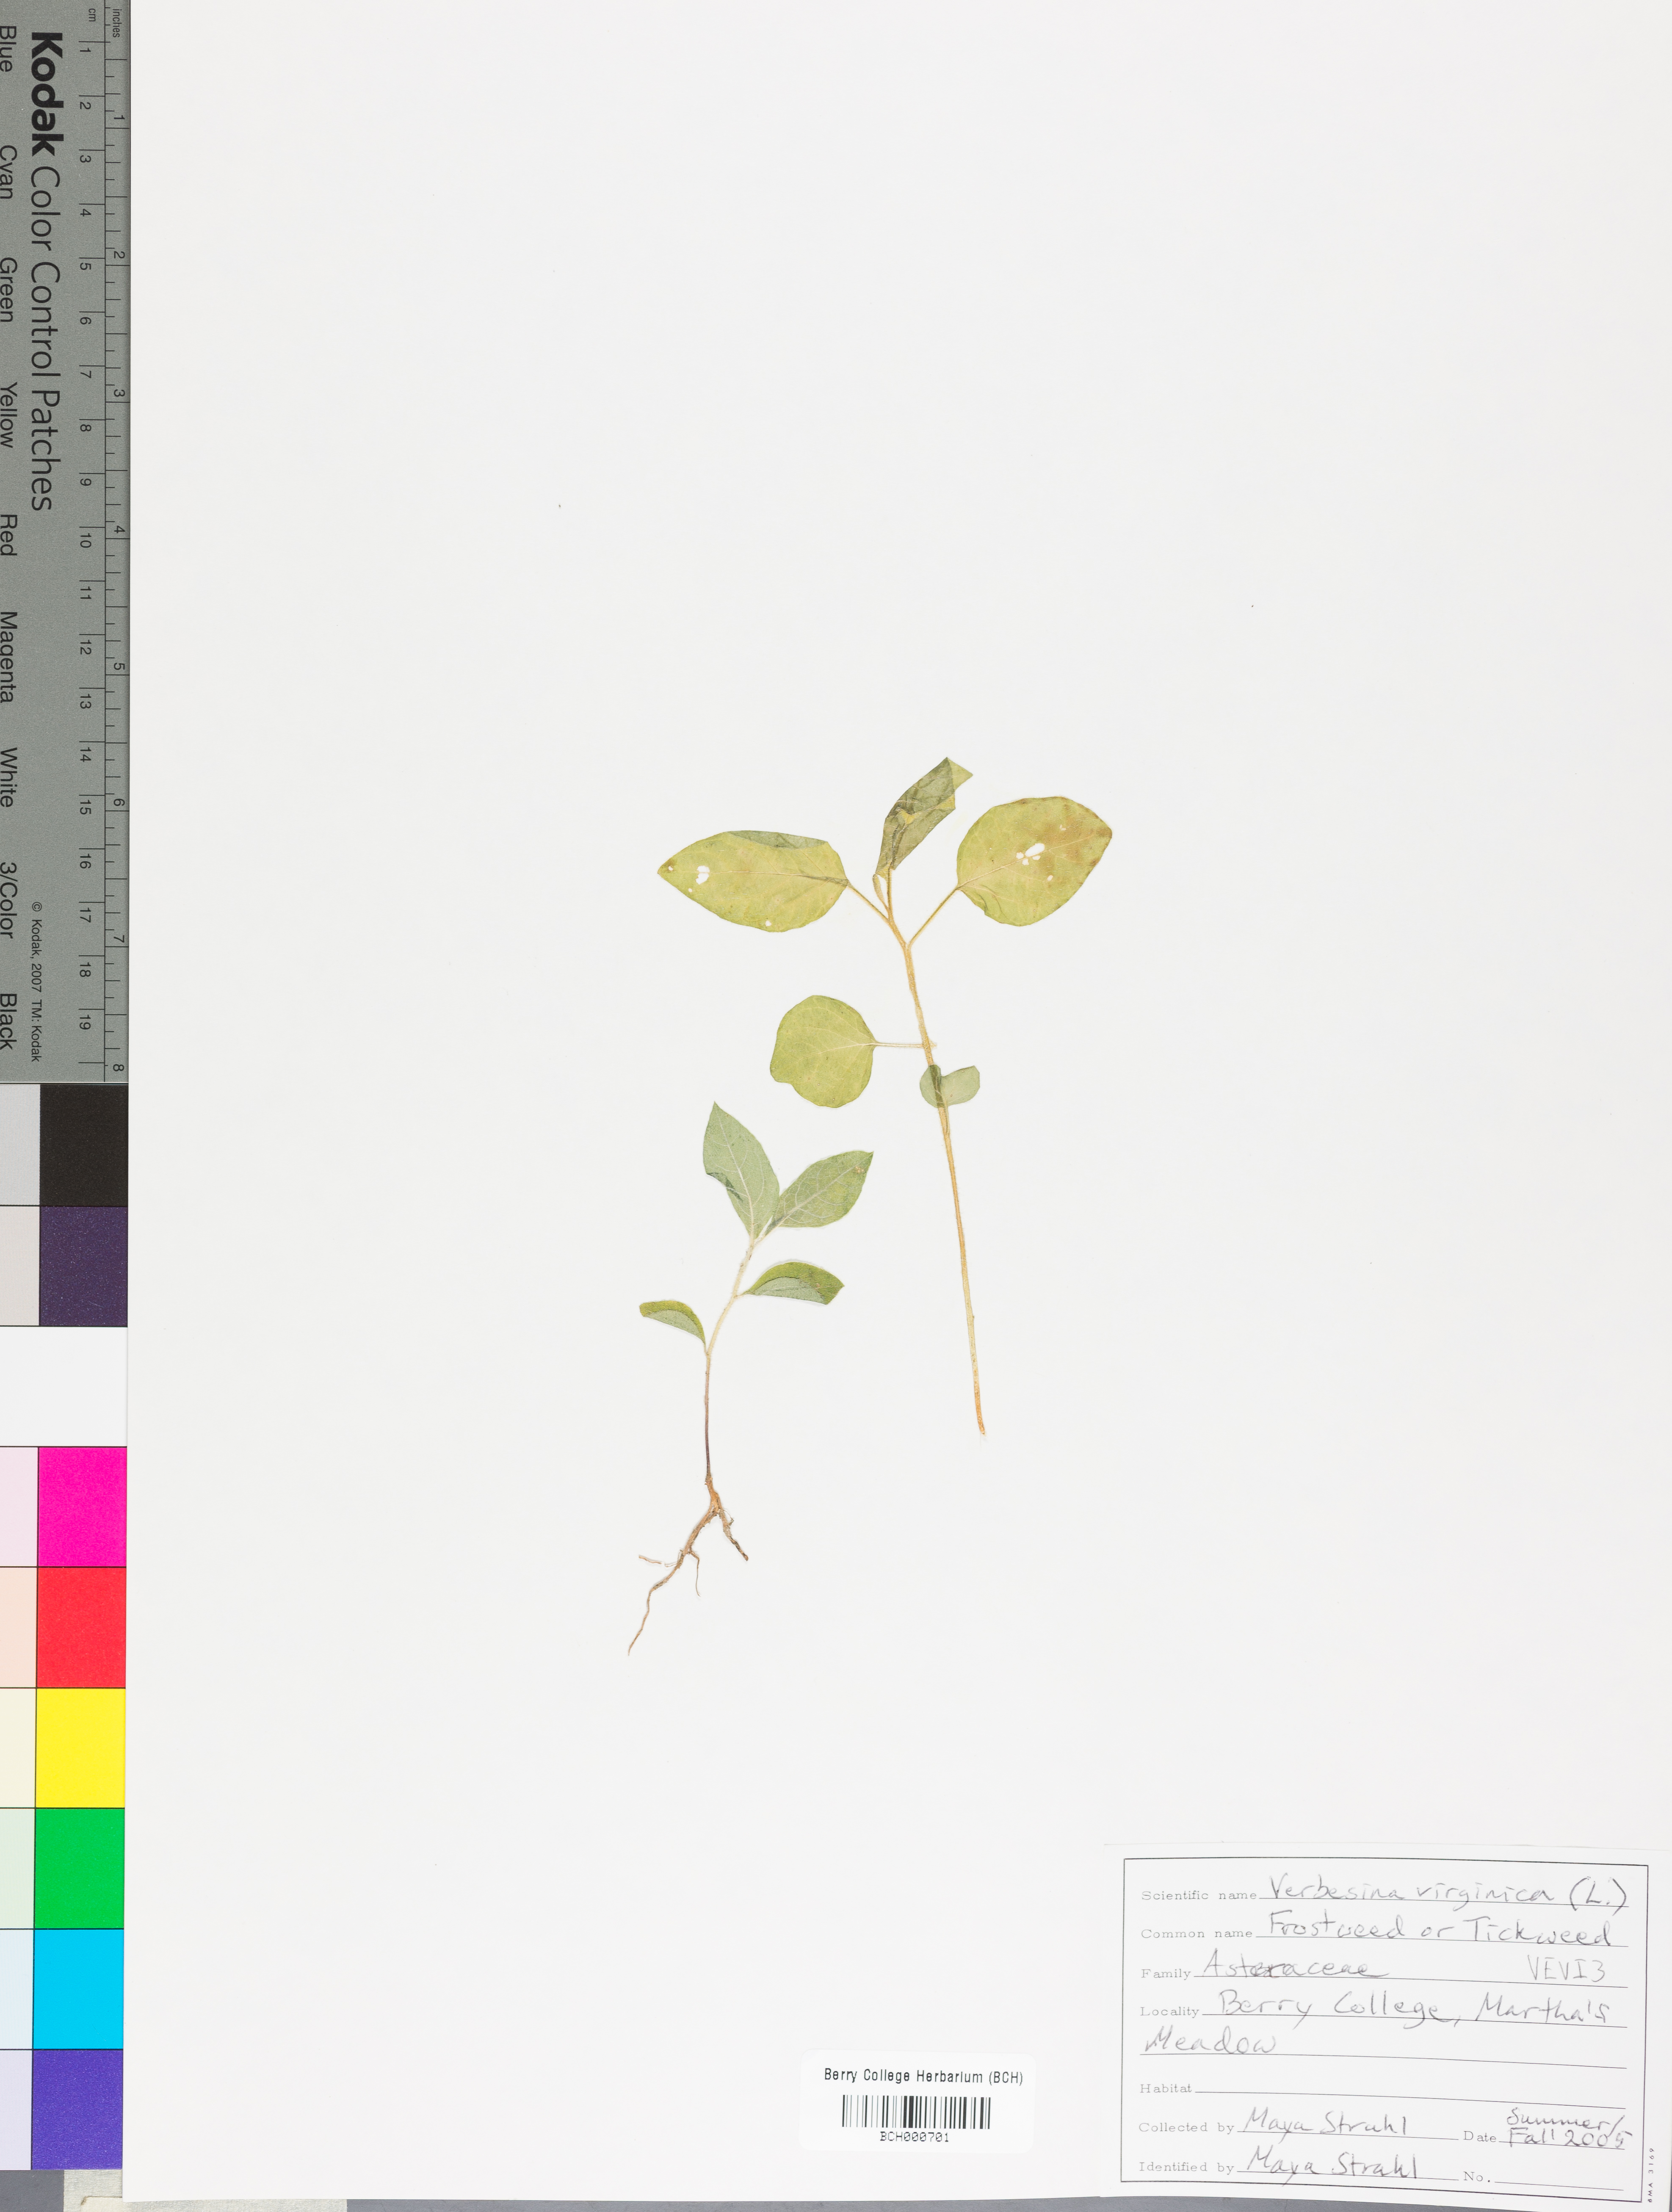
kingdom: Plantae
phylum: Tracheophyta
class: Magnoliopsida
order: Asterales
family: Asteraceae
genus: Verbesina
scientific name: Verbesina virginica
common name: Frostweed
